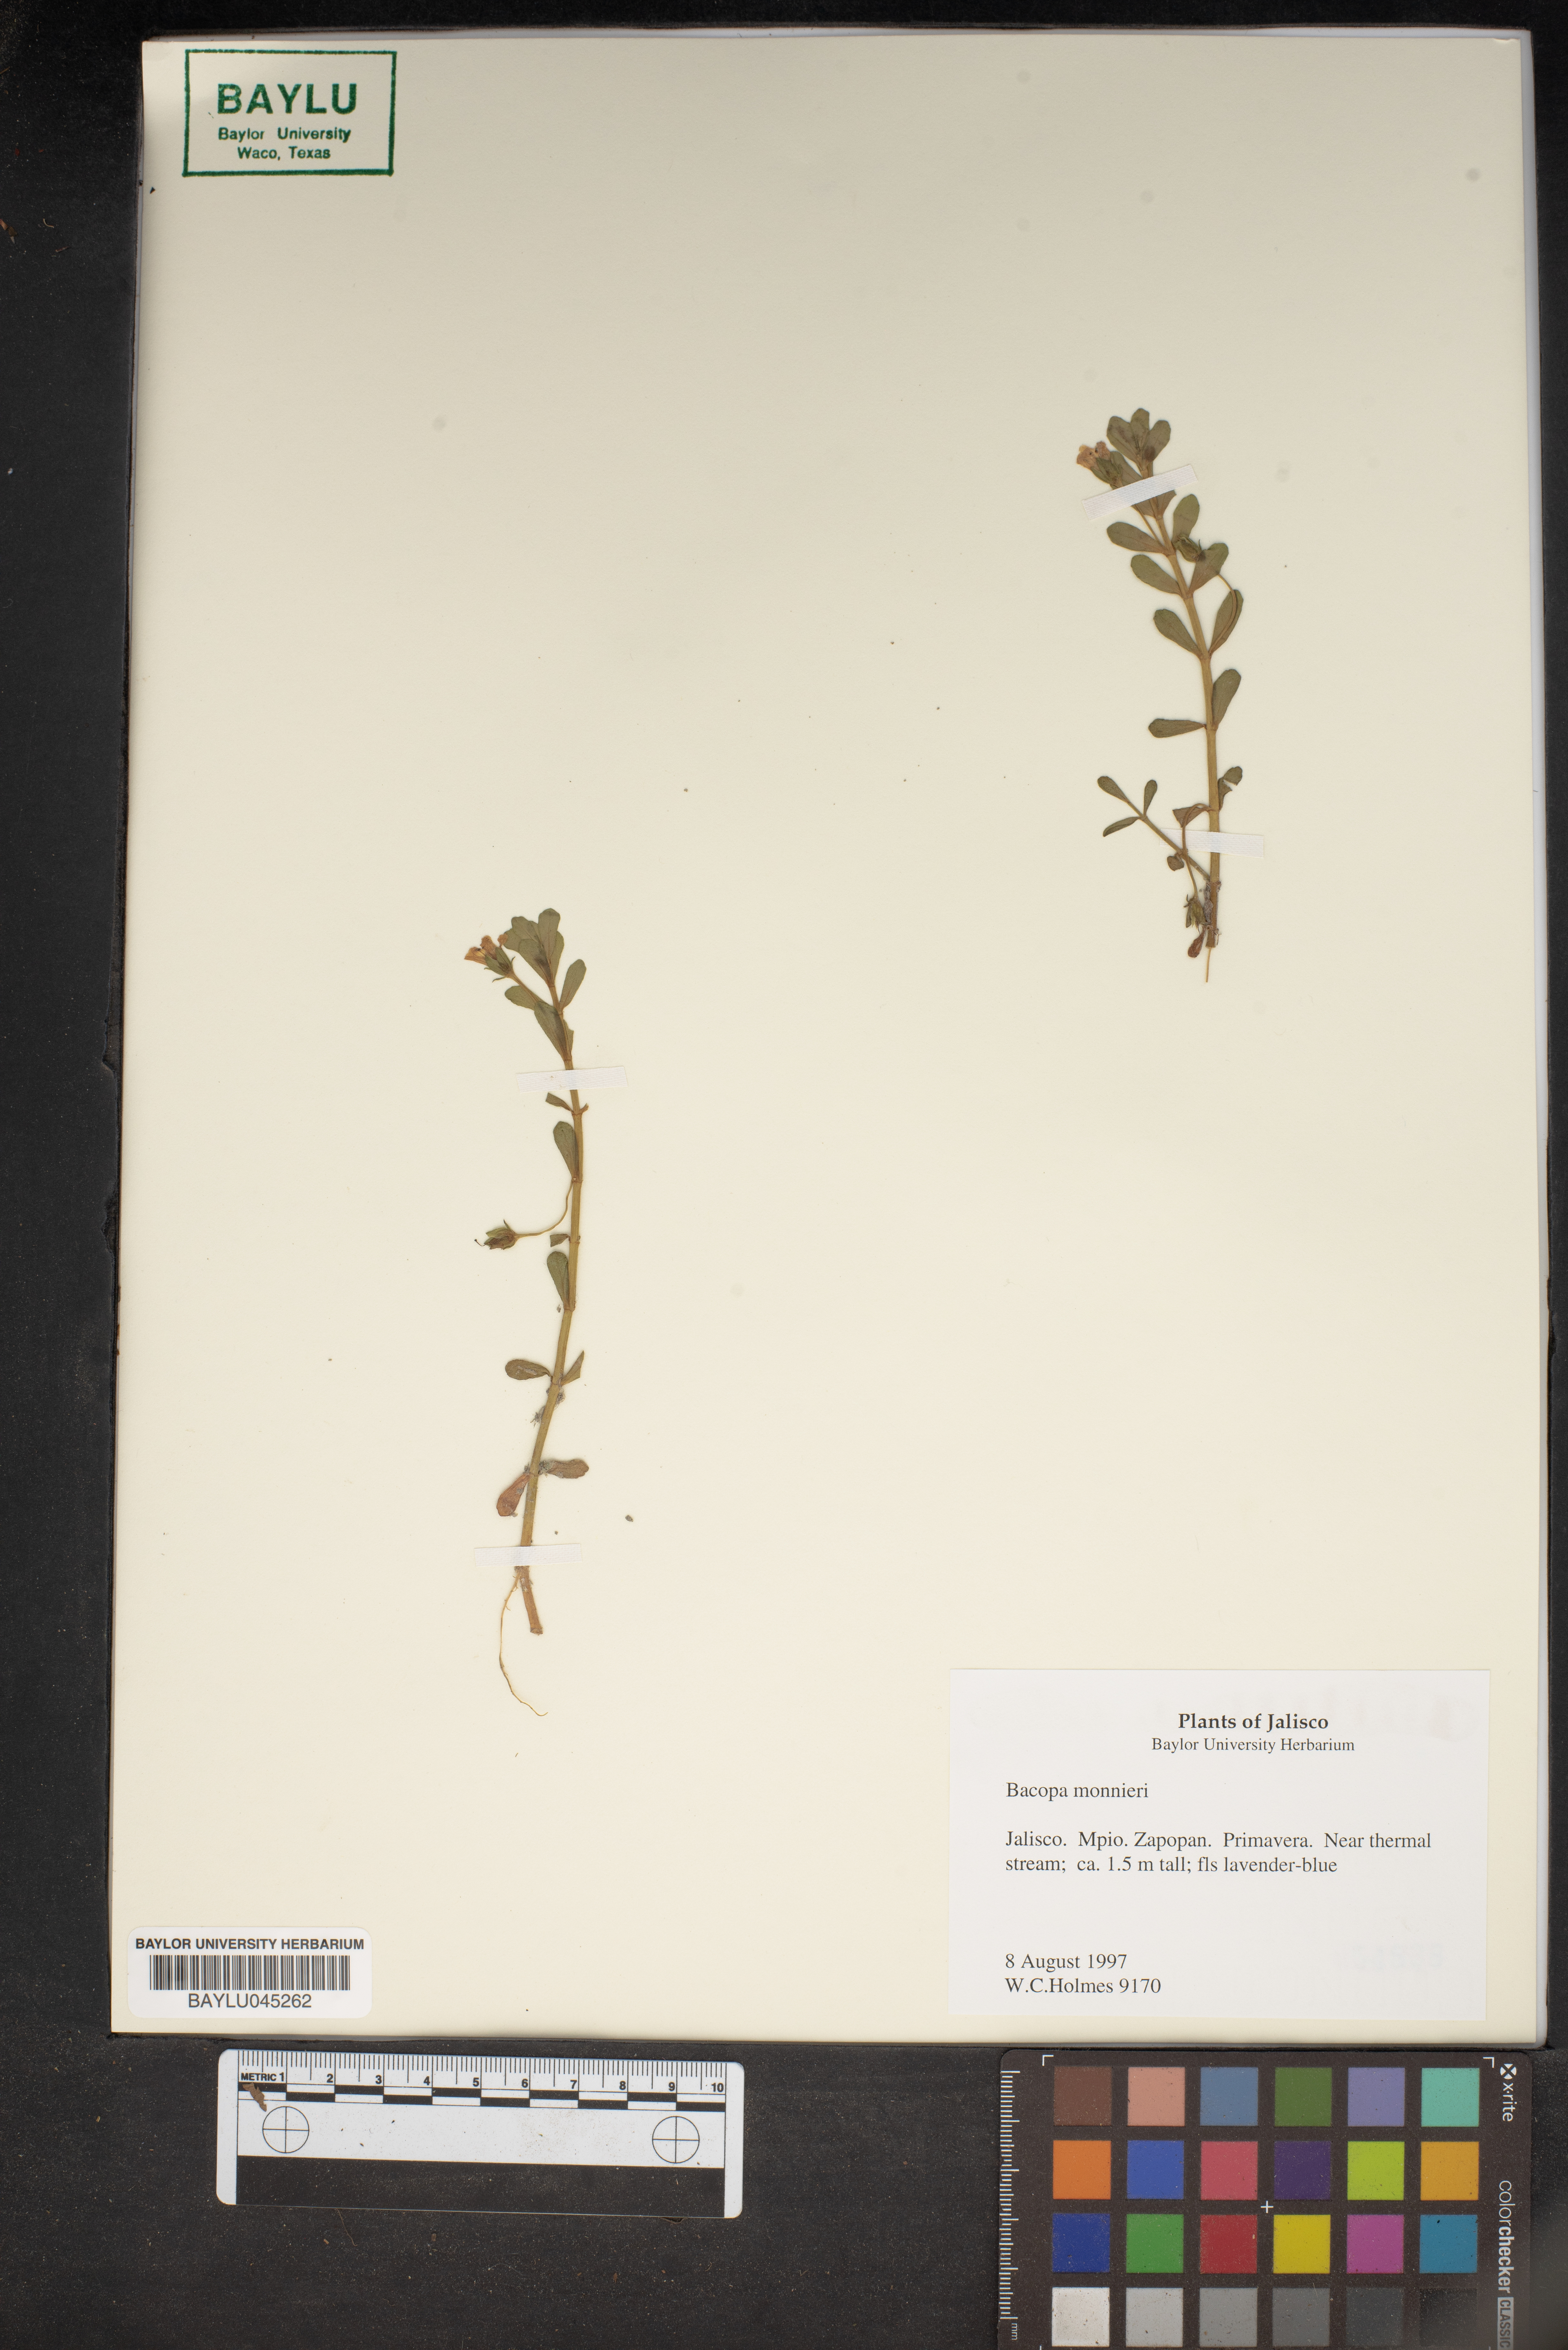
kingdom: Plantae
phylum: Tracheophyta
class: Magnoliopsida
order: Lamiales
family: Plantaginaceae
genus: Bacopa
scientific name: Bacopa monnieri
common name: Indian-pennywort
